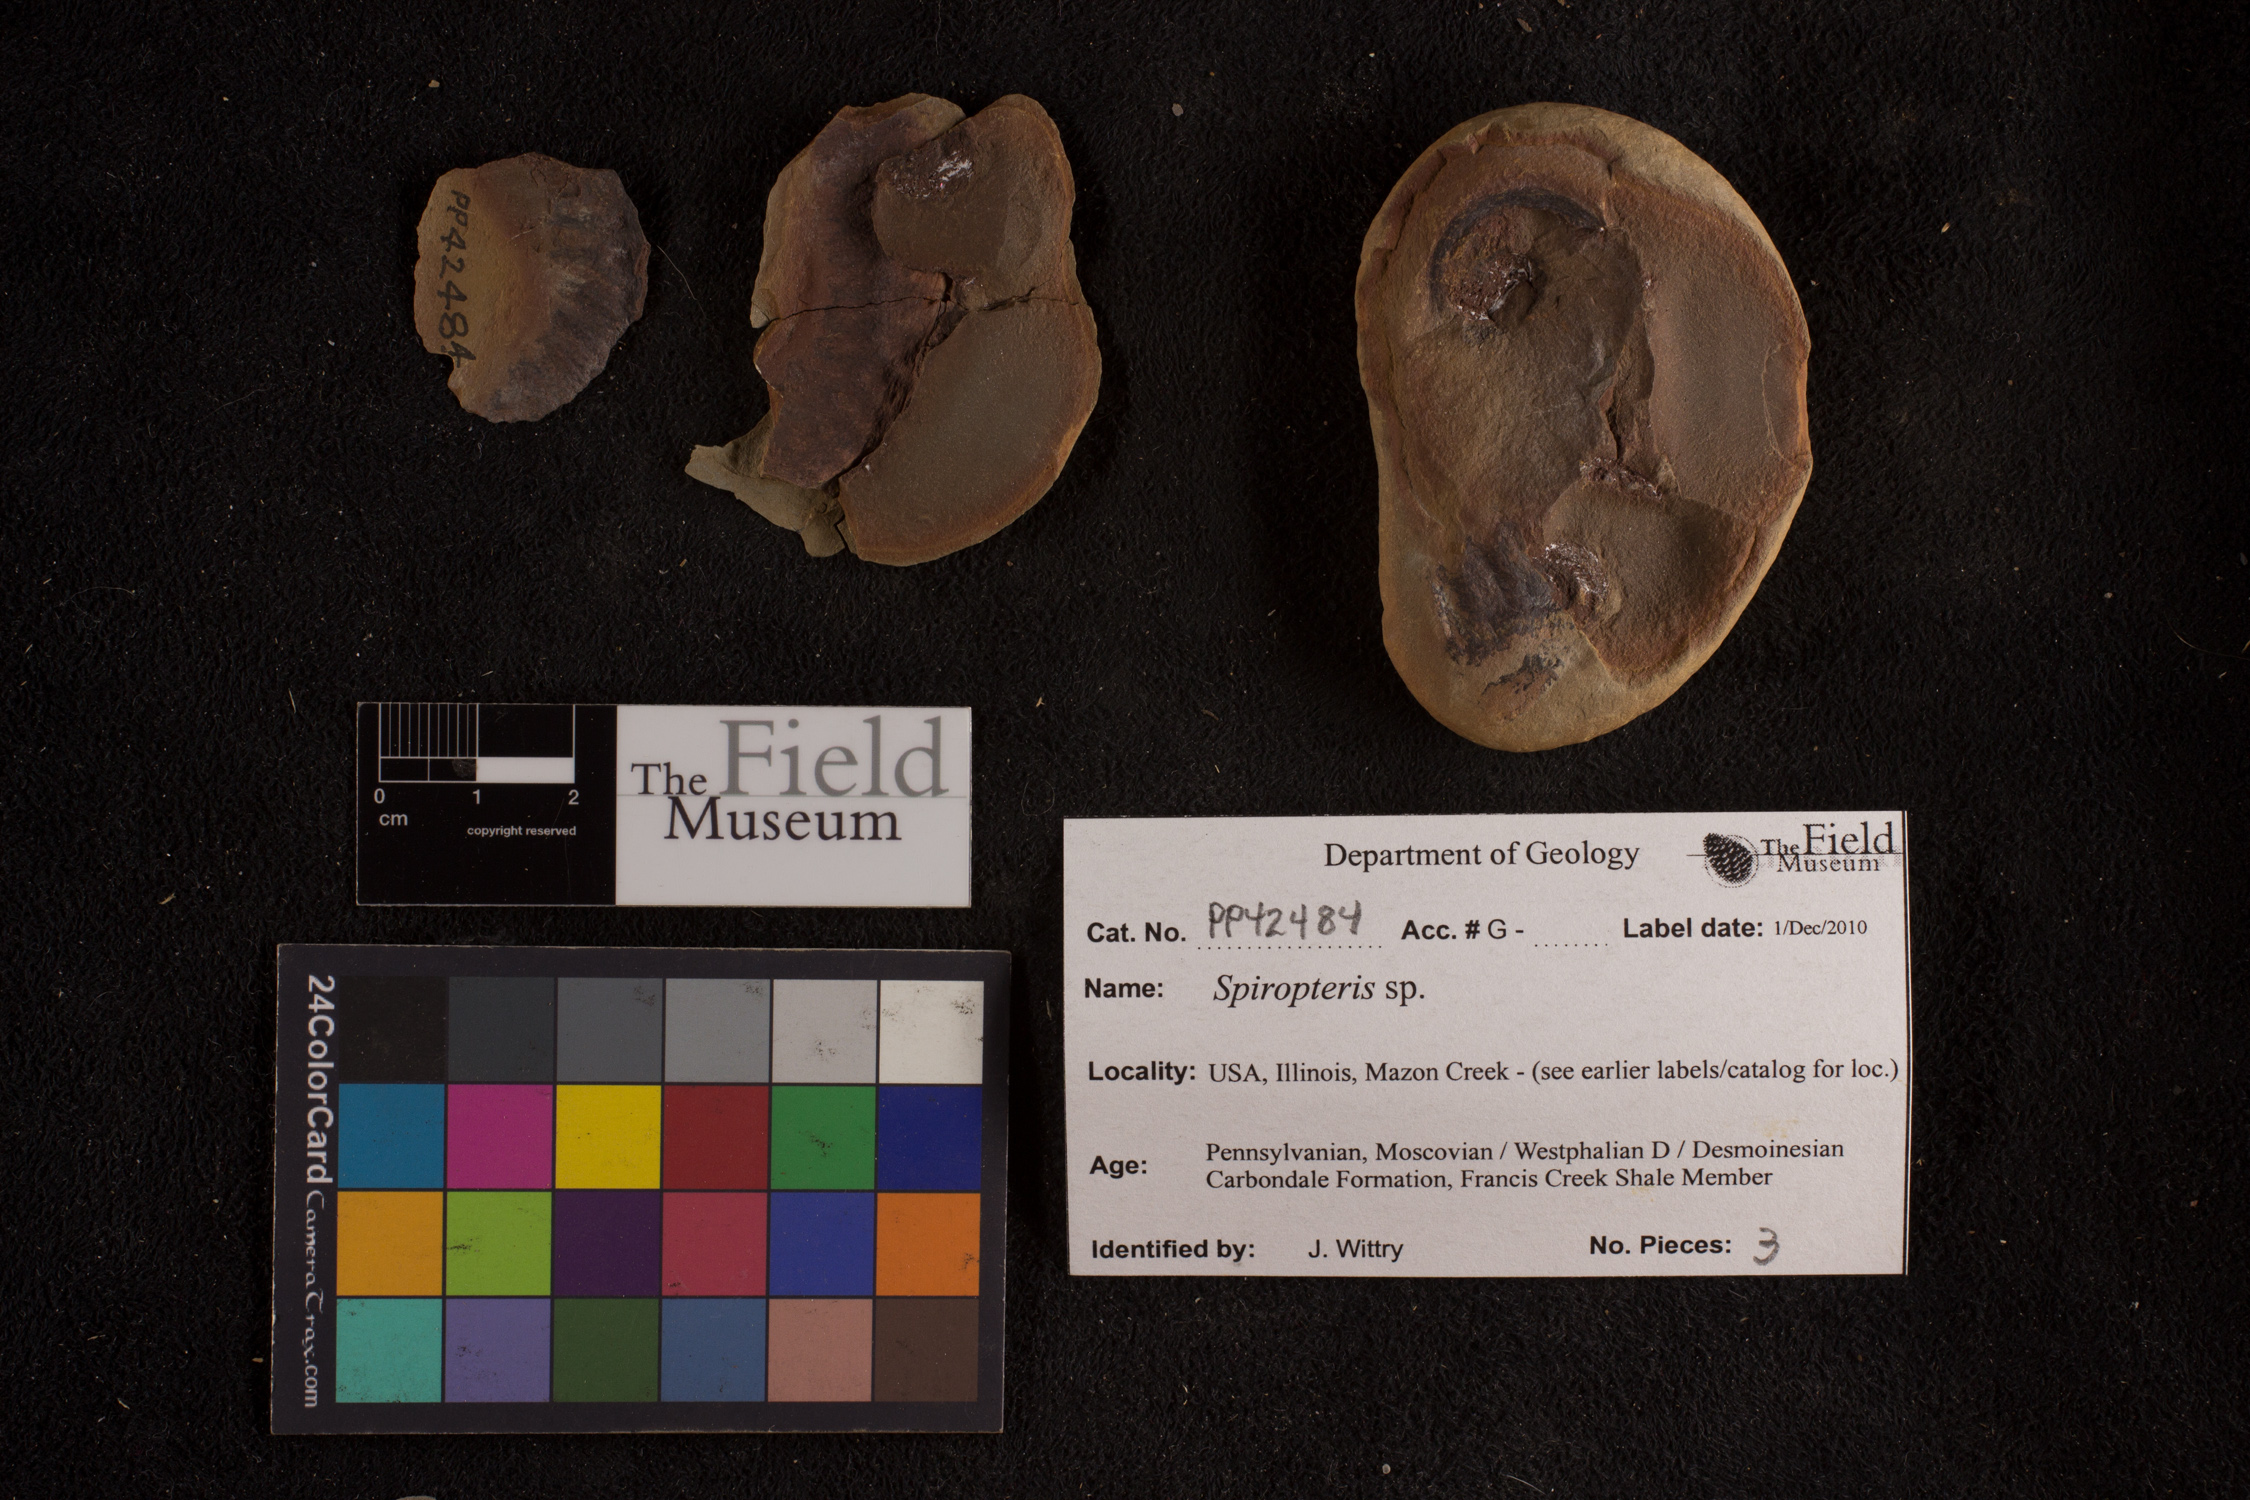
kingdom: Plantae
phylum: Tracheophyta
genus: Spiropteris
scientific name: Spiropteris
